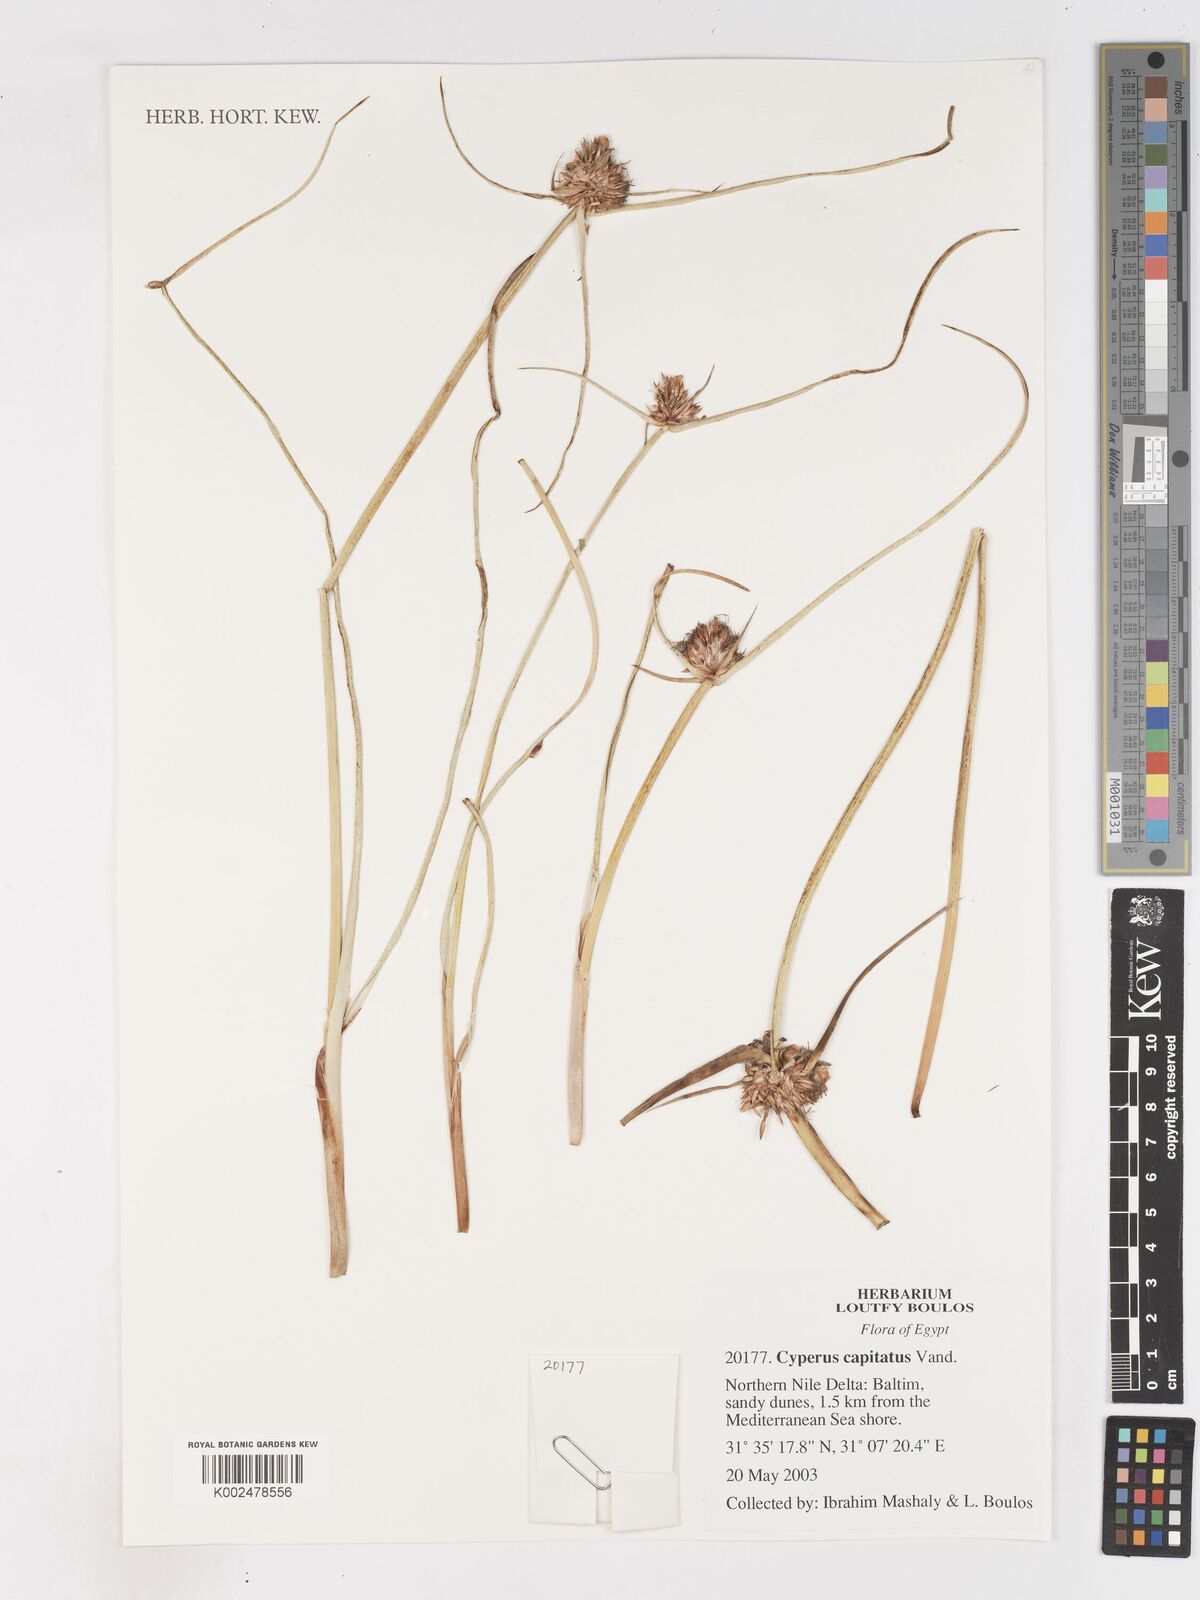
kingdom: Plantae
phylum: Tracheophyta
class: Liliopsida
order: Poales
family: Cyperaceae
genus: Cyperus
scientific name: Cyperus capitatus
